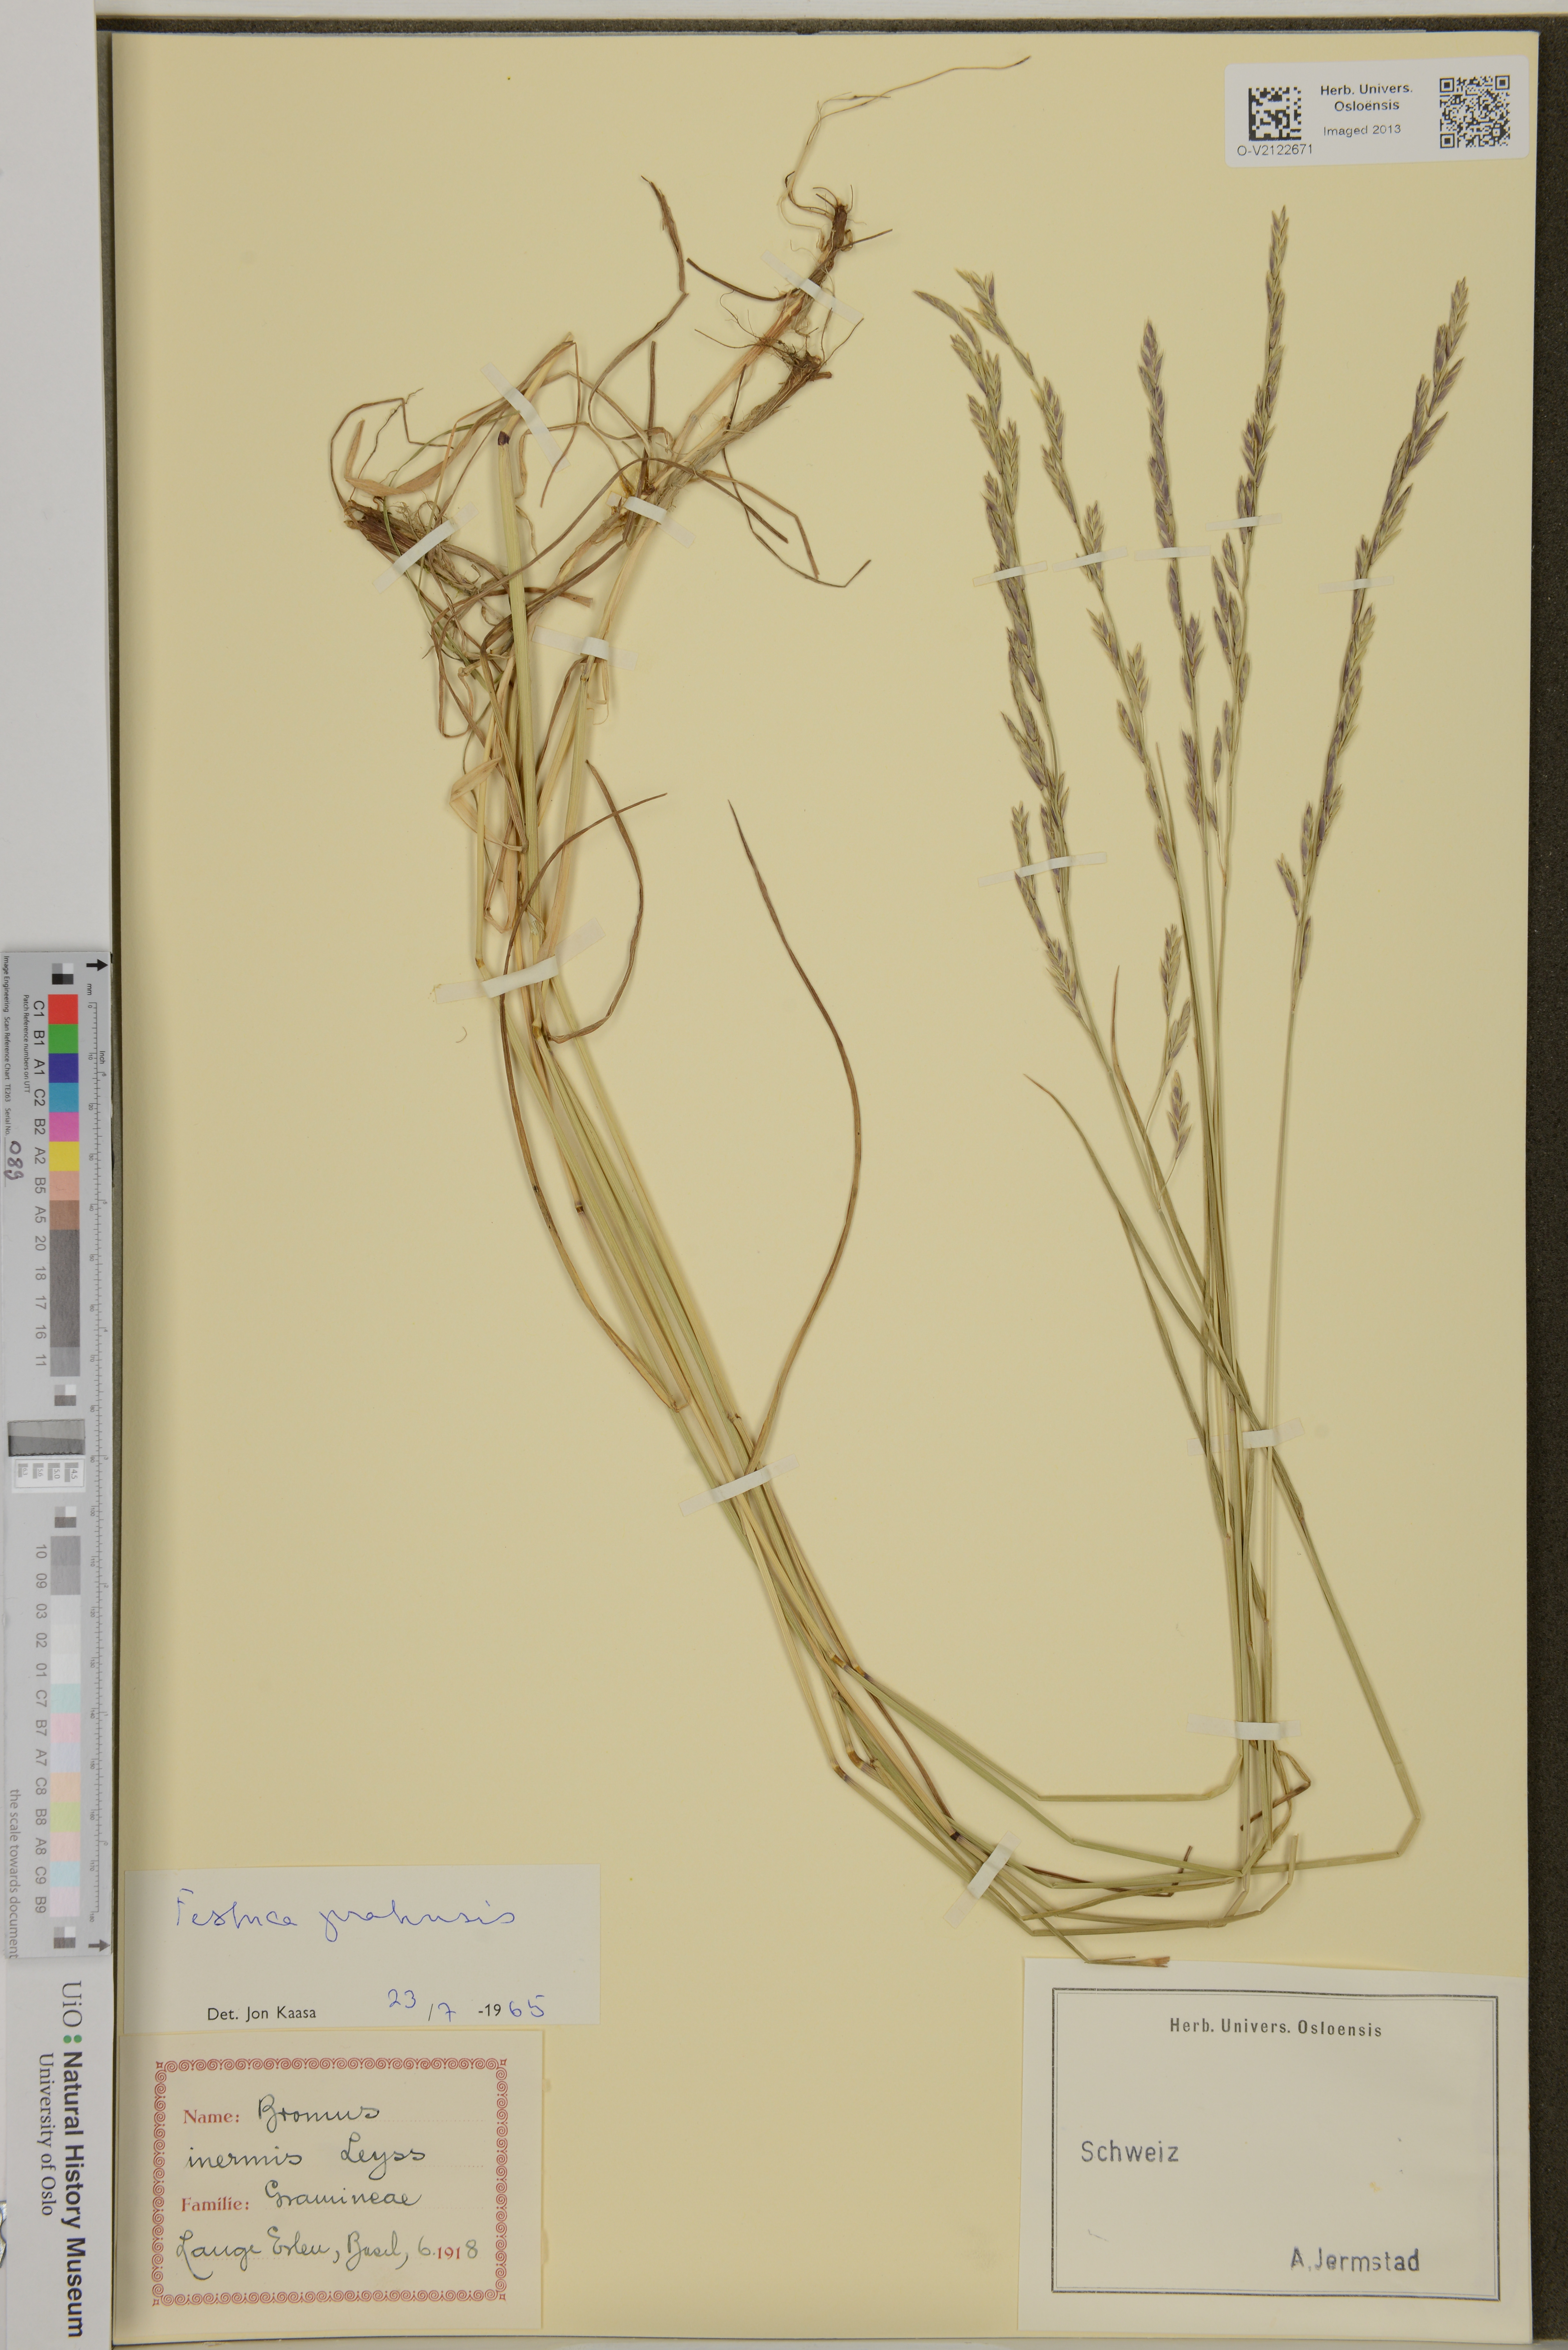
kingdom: Plantae
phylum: Tracheophyta
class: Liliopsida
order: Poales
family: Poaceae
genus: Lolium
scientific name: Lolium pratense
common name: Dover grass
